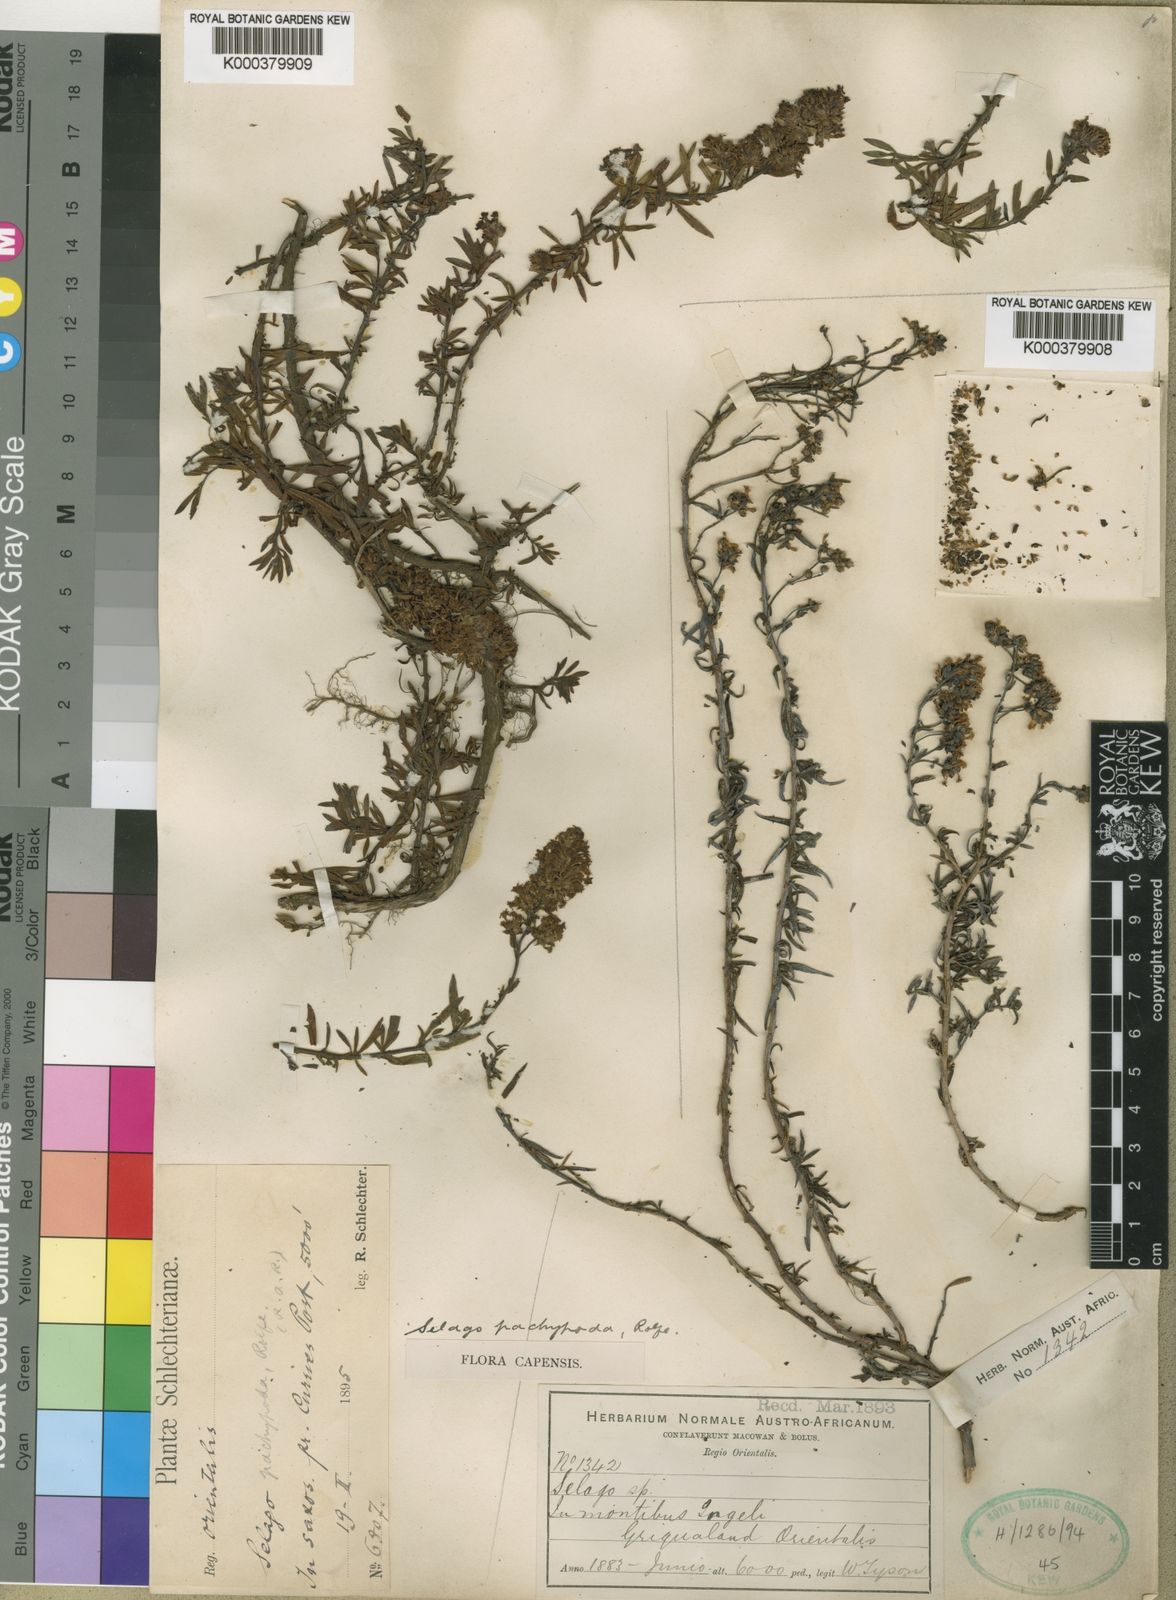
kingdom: Plantae
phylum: Tracheophyta
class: Magnoliopsida
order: Lamiales
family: Scrophulariaceae
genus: Selago
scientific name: Selago pachypoda
